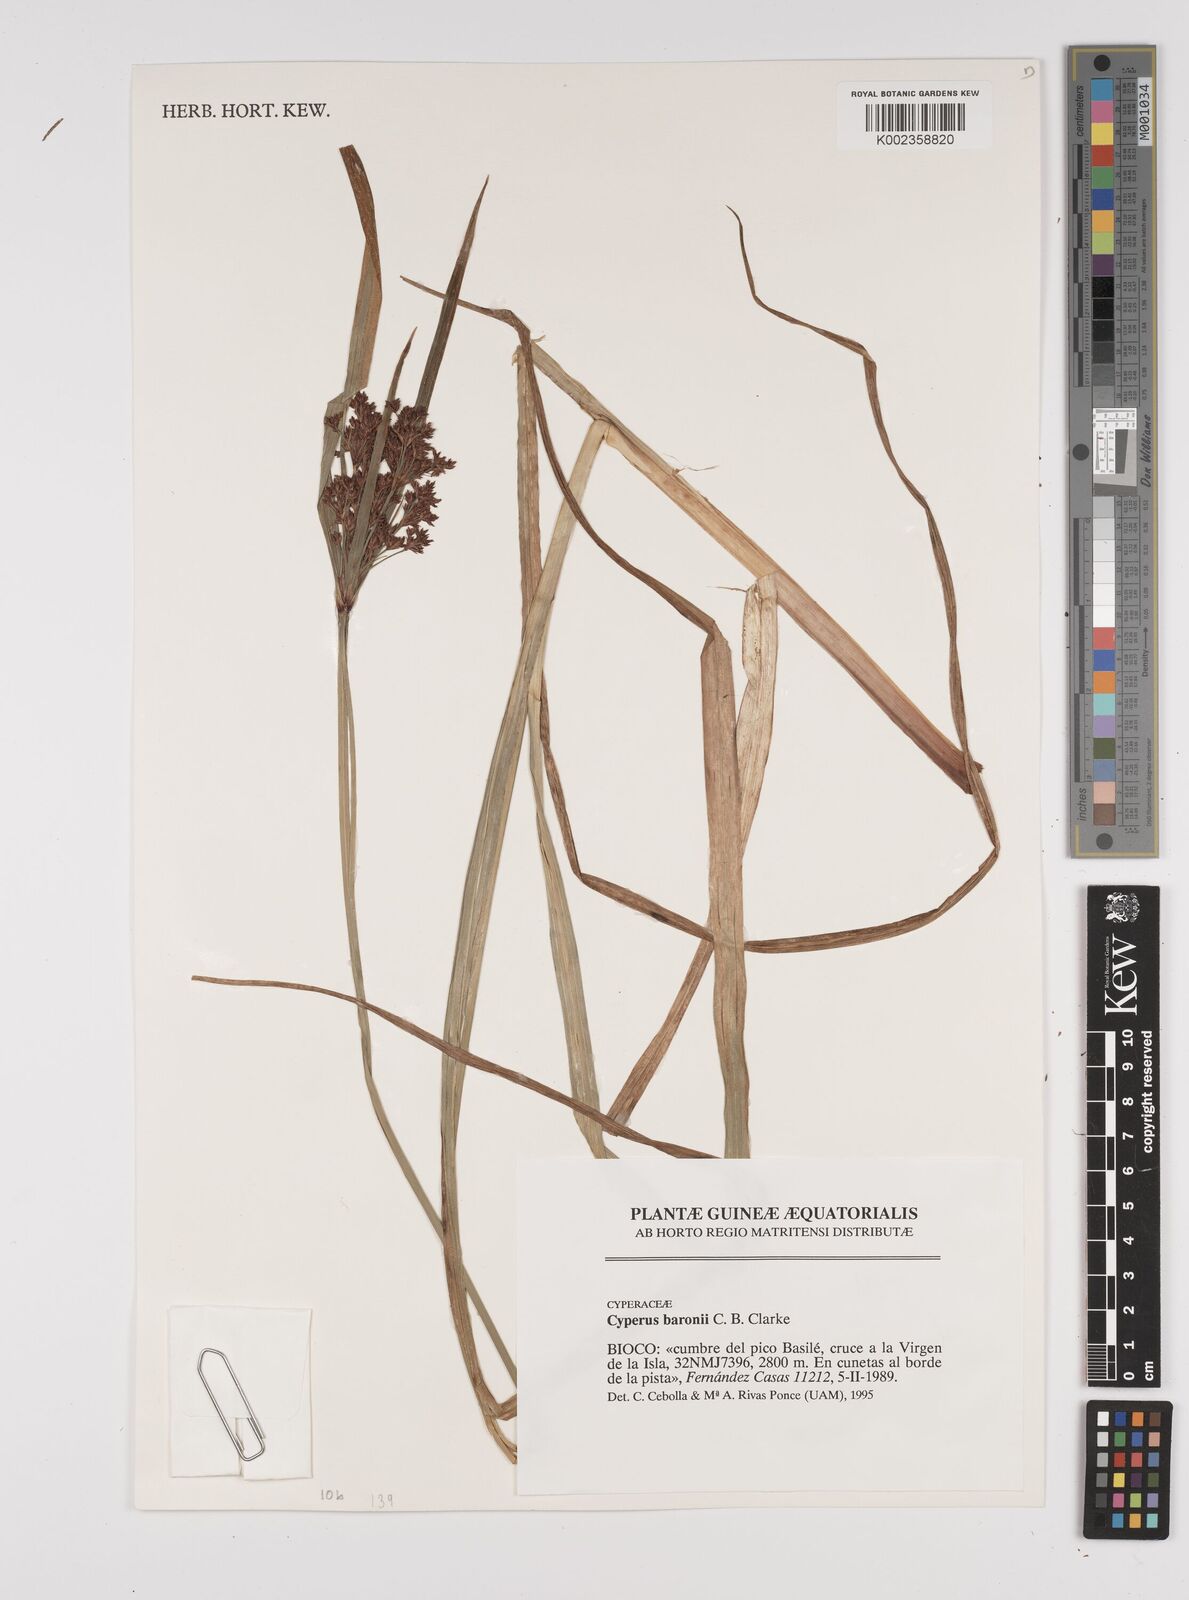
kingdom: Plantae
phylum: Tracheophyta
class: Liliopsida
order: Poales
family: Cyperaceae
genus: Cyperus
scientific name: Cyperus baronii
